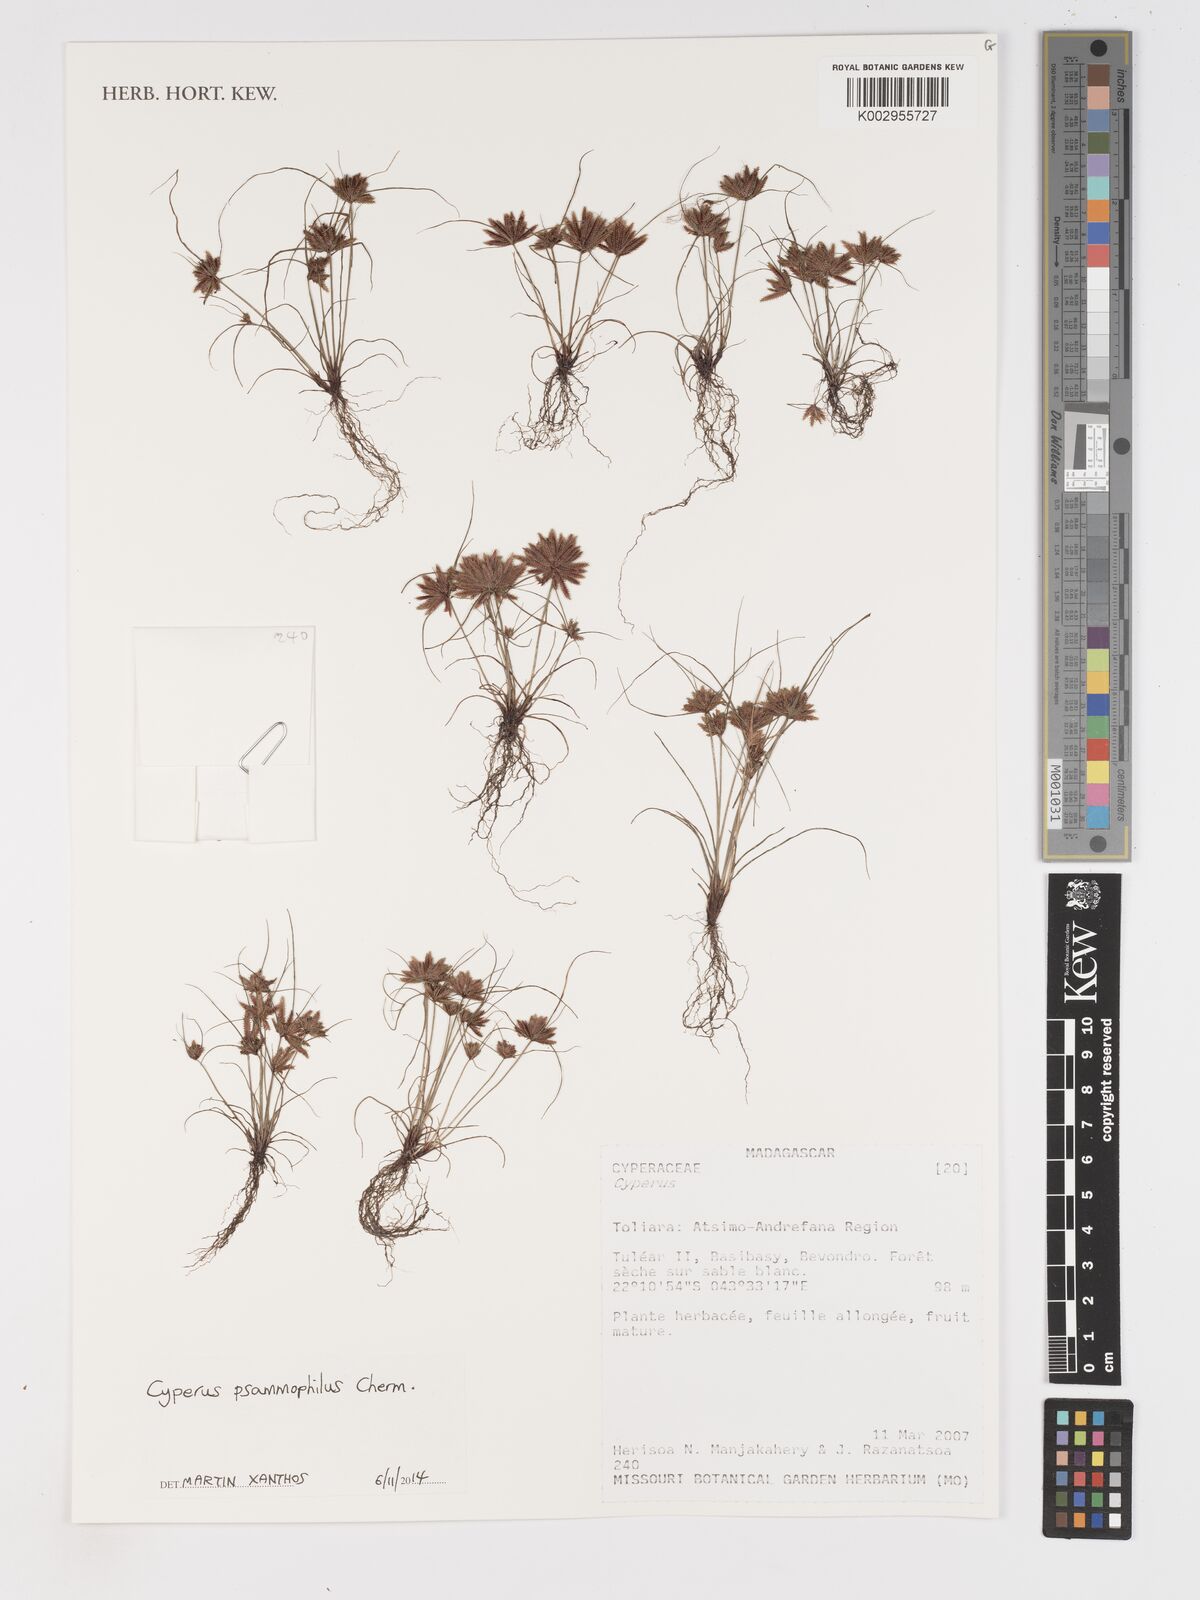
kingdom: Plantae
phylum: Tracheophyta
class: Liliopsida
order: Poales
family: Cyperaceae
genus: Cyperus
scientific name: Cyperus psammophilus
